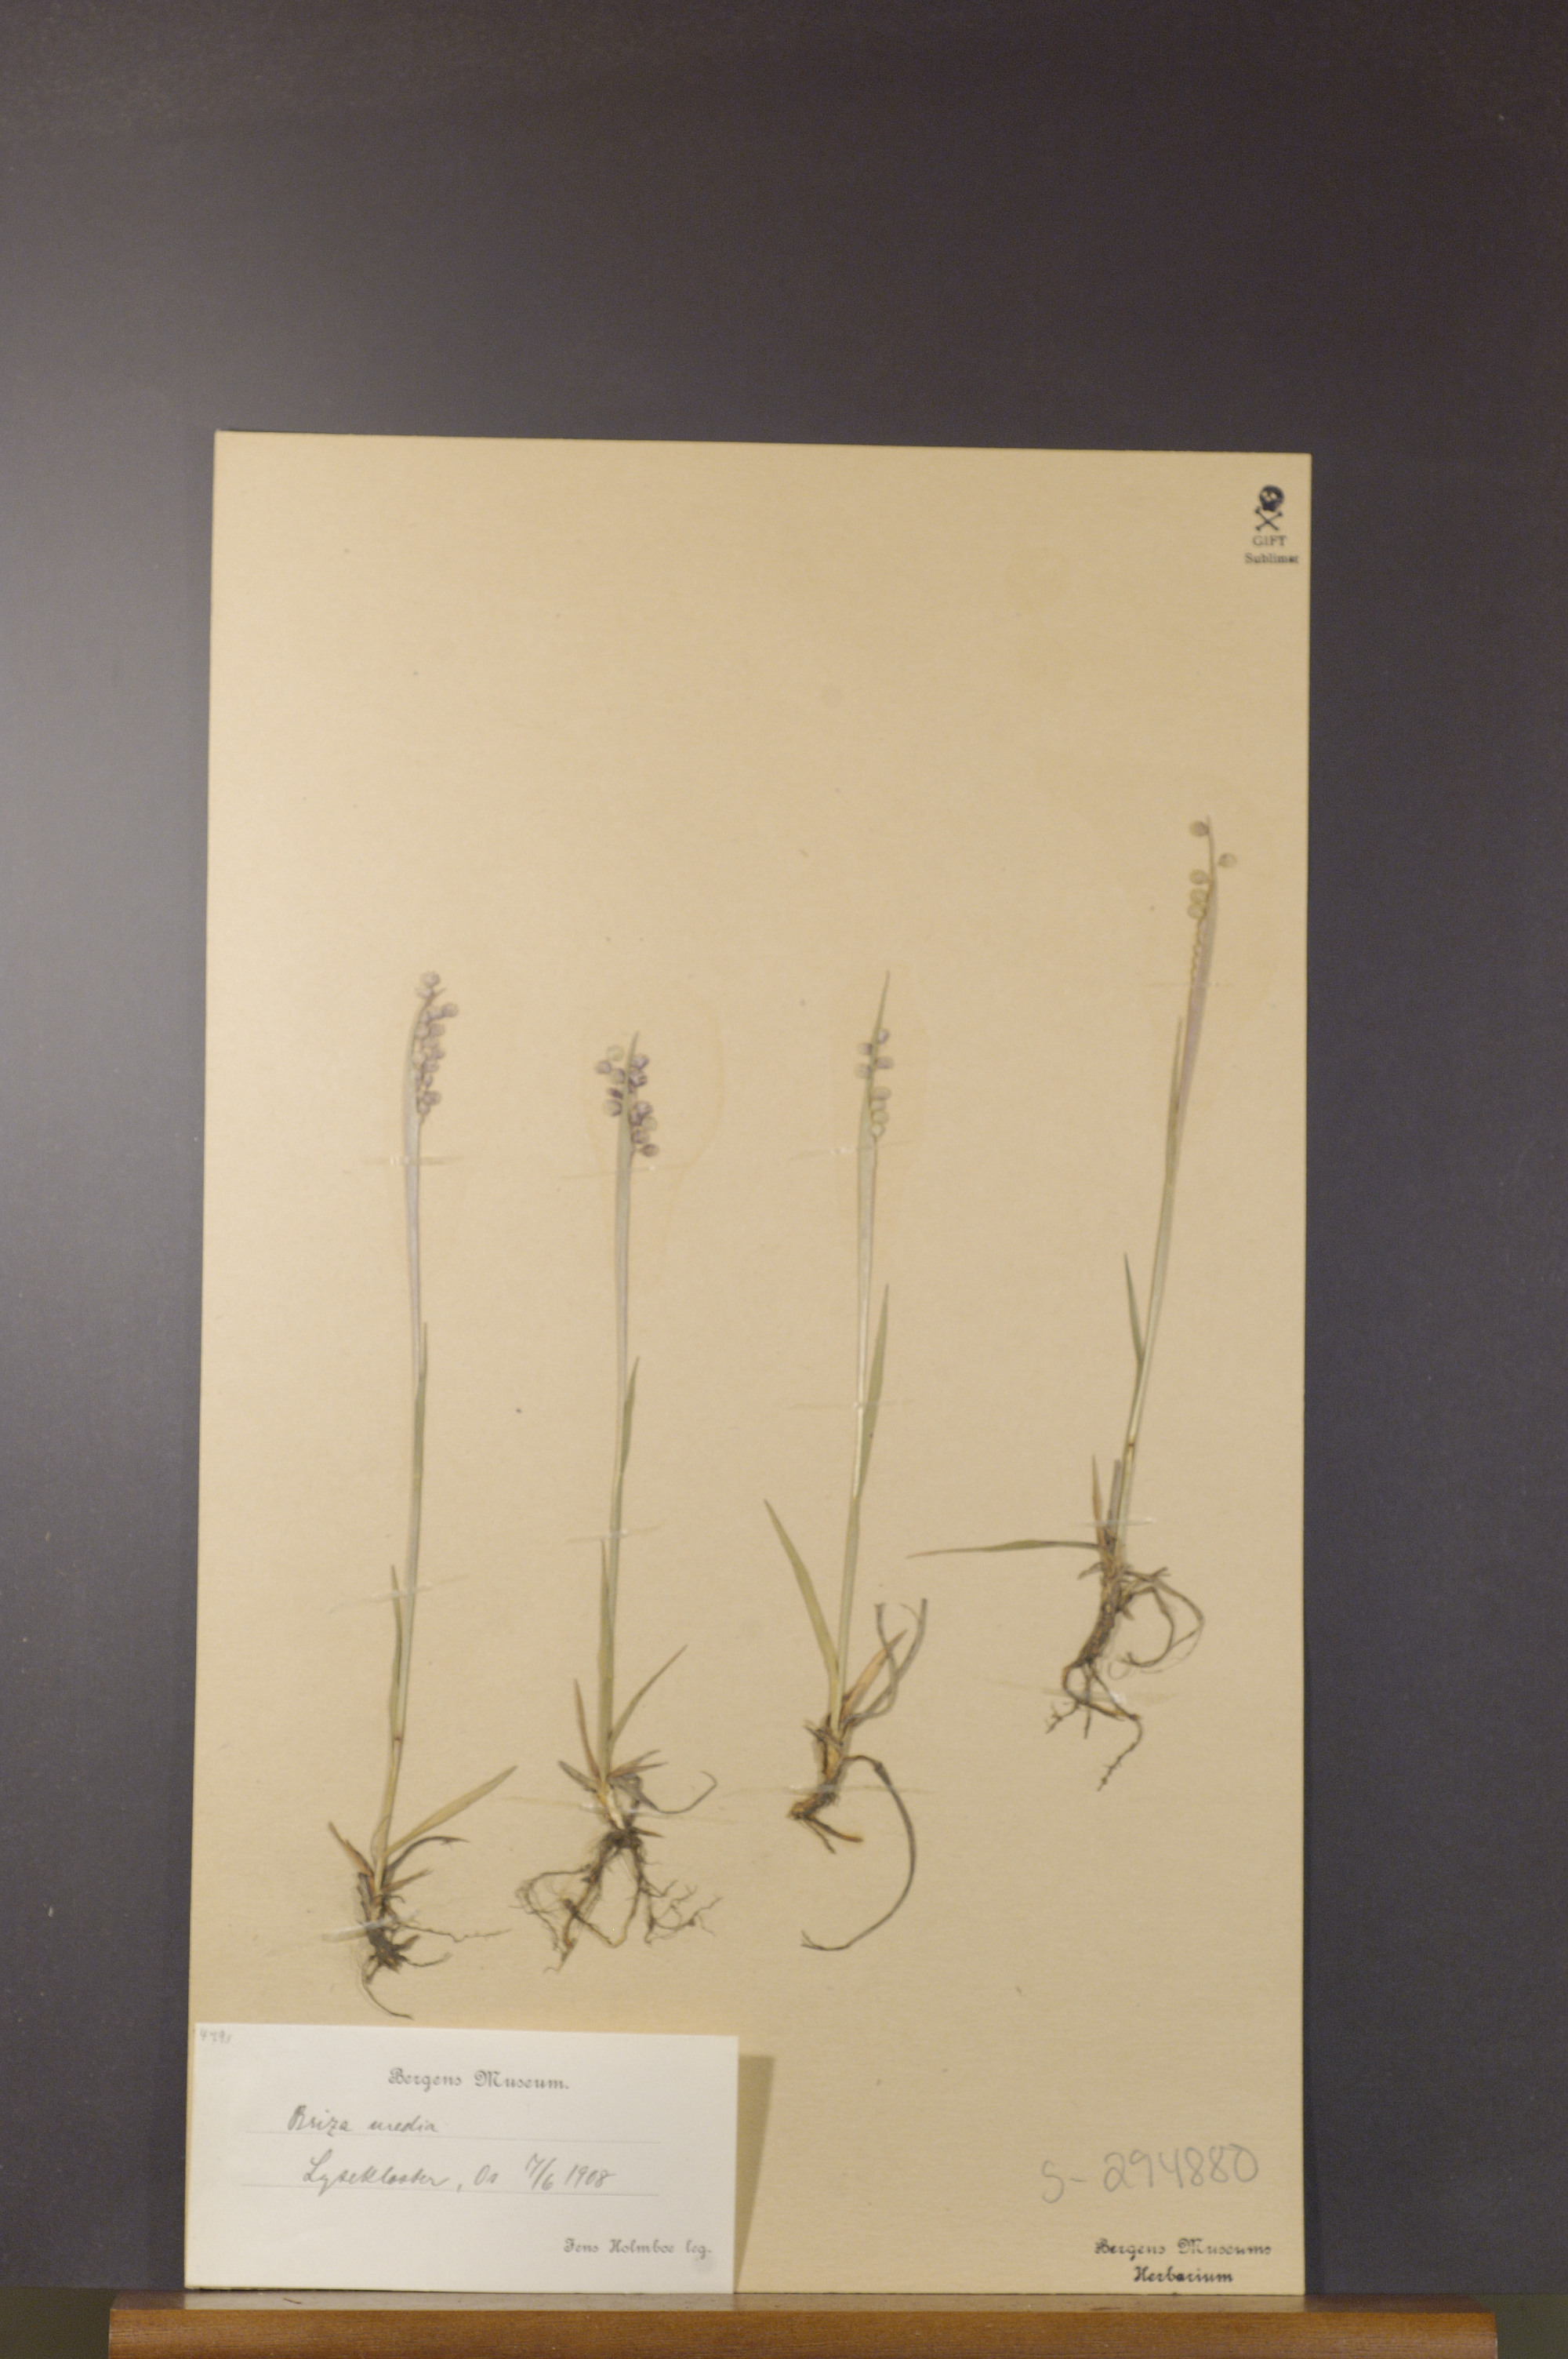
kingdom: Plantae
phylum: Tracheophyta
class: Liliopsida
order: Poales
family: Poaceae
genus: Briza
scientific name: Briza media
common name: Quaking grass
